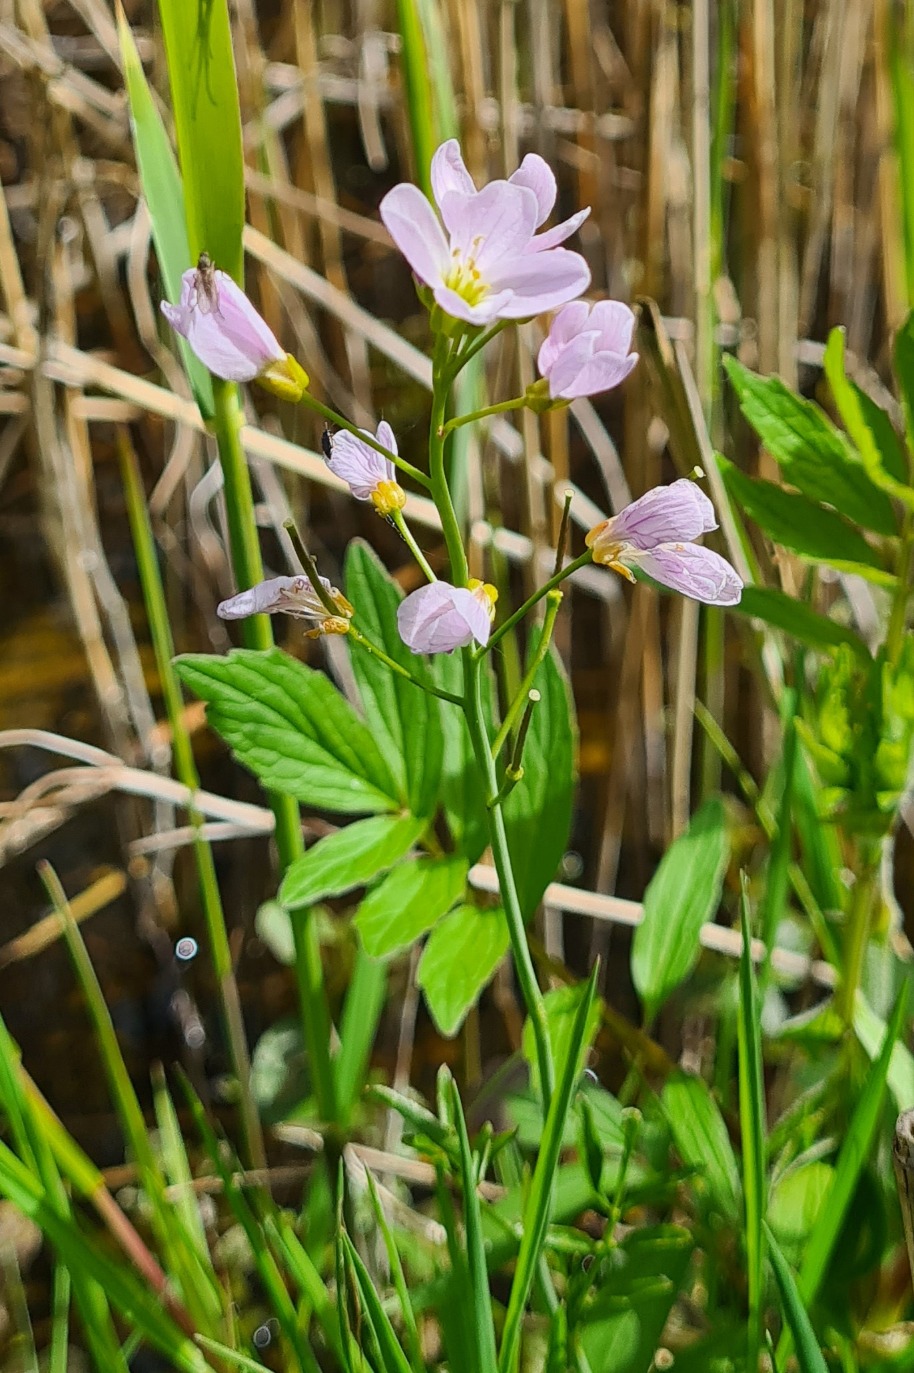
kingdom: Plantae
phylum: Tracheophyta
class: Magnoliopsida
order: Brassicales
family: Brassicaceae
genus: Cardamine
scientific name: Cardamine pratensis
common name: Engkarse
